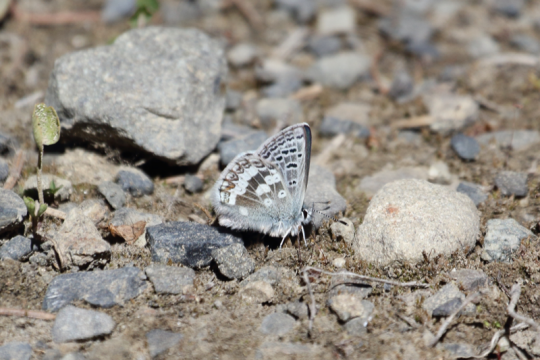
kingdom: Animalia
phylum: Arthropoda
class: Insecta
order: Lepidoptera
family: Lycaenidae
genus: Agriades
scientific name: Agriades glandon
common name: Arctic Blue
